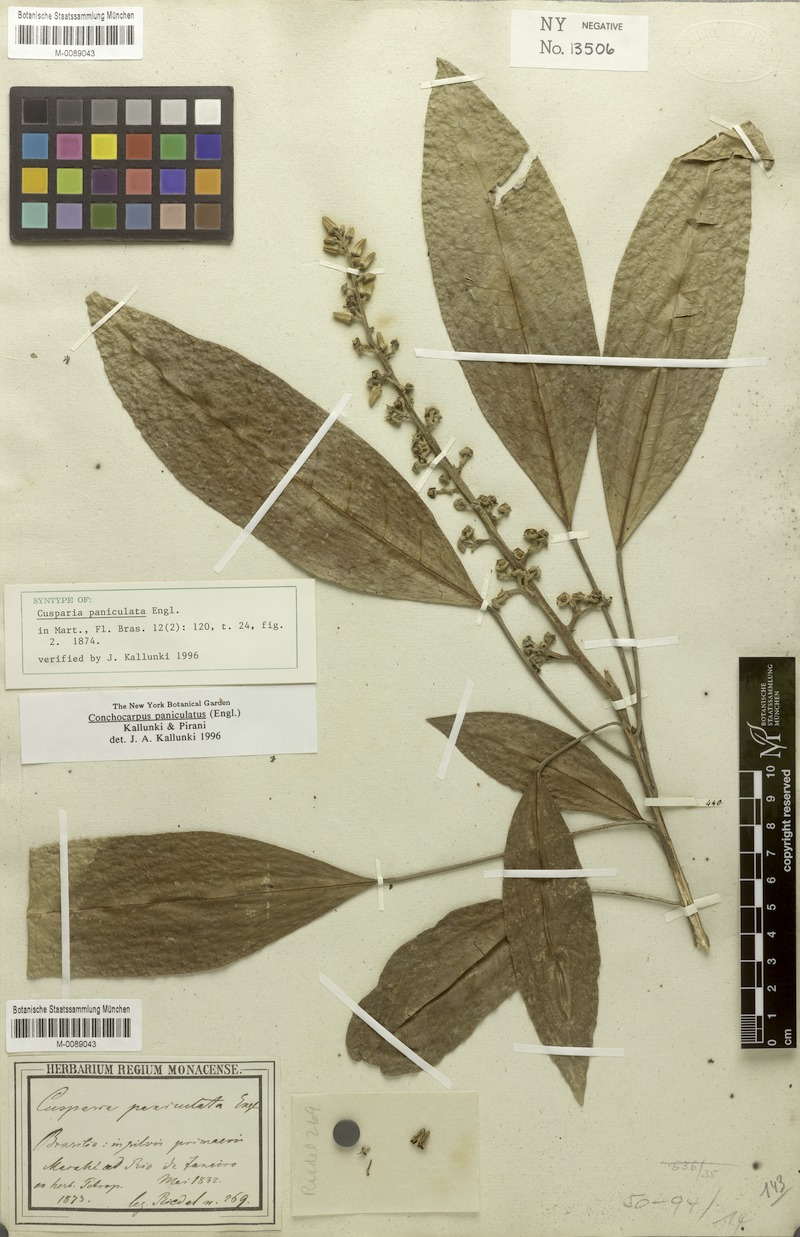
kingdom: Plantae
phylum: Tracheophyta
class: Magnoliopsida
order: Sapindales
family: Rutaceae
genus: Conchocarpus
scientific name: Conchocarpus paniculatus
